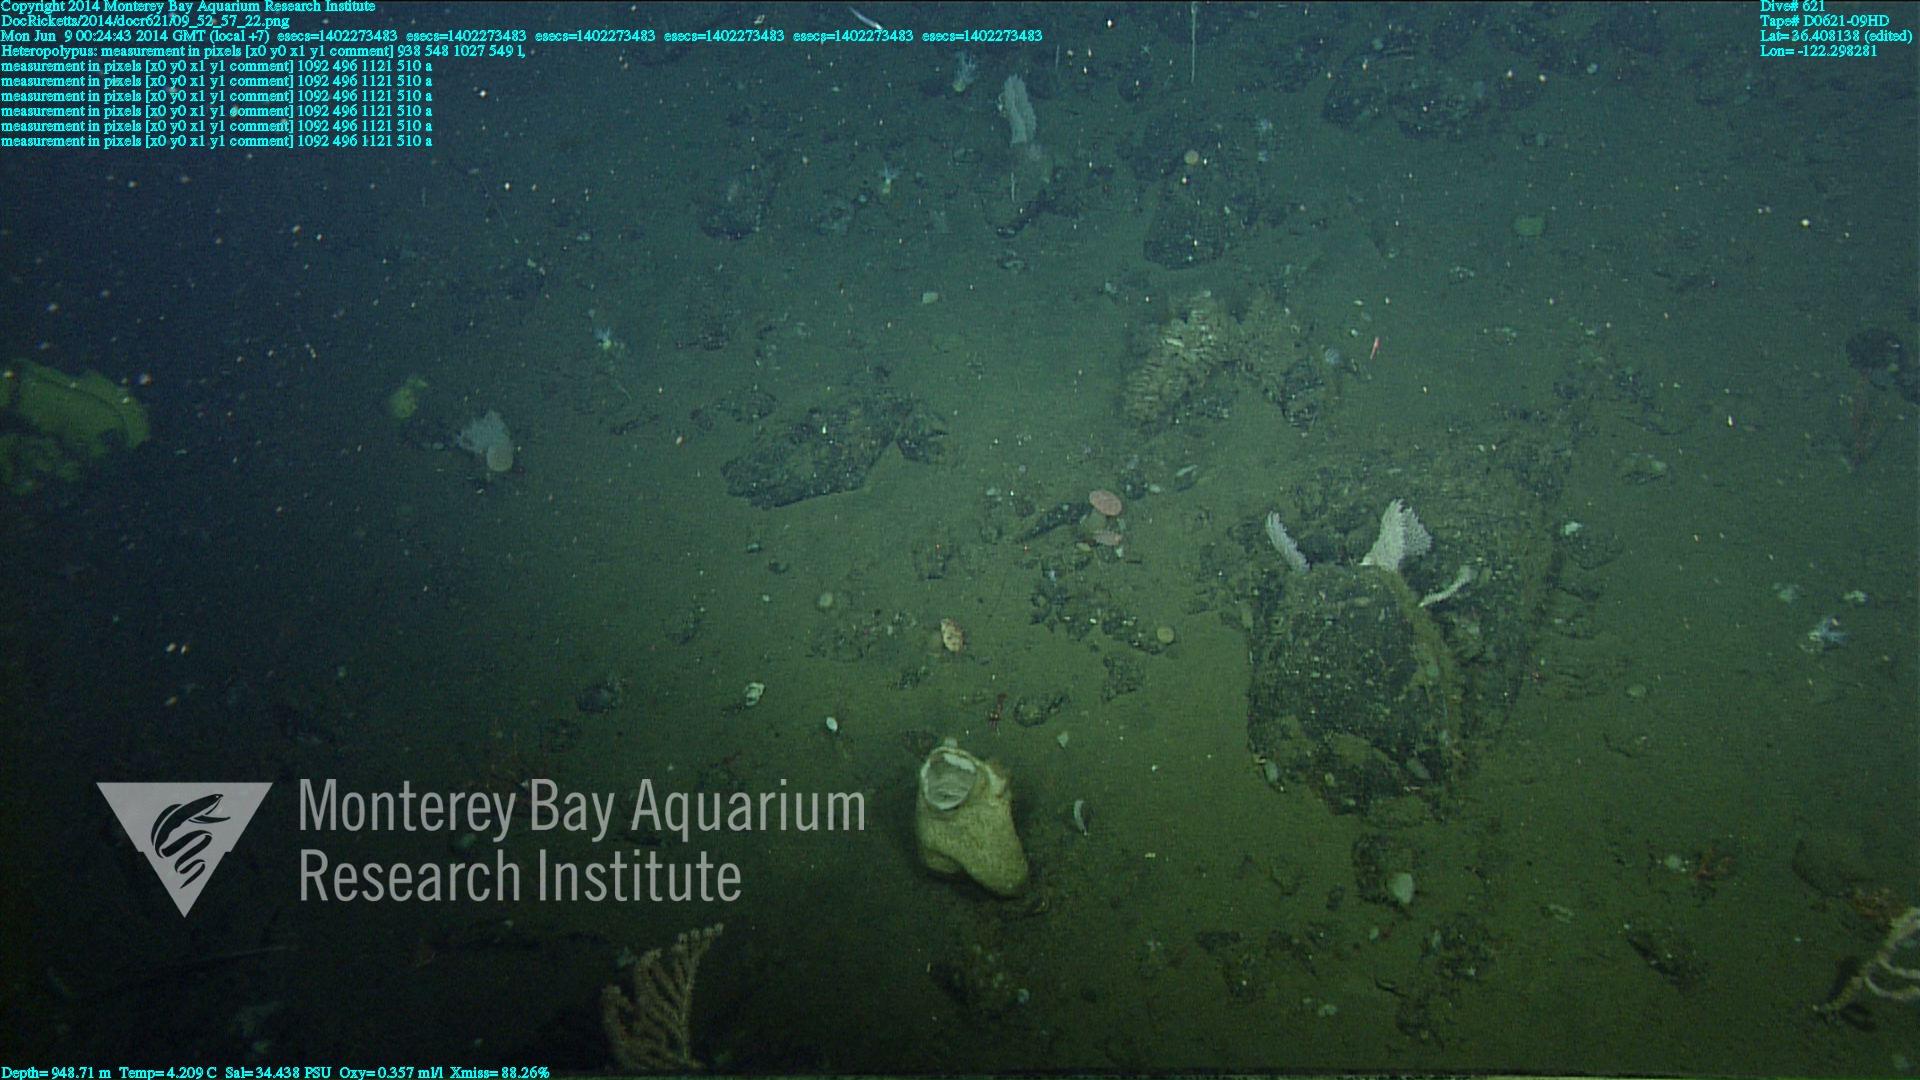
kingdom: Animalia
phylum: Cnidaria
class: Anthozoa
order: Scleralcyonacea
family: Coralliidae
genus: Heteropolypus
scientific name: Heteropolypus ritteri
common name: Ritter's soft coral
